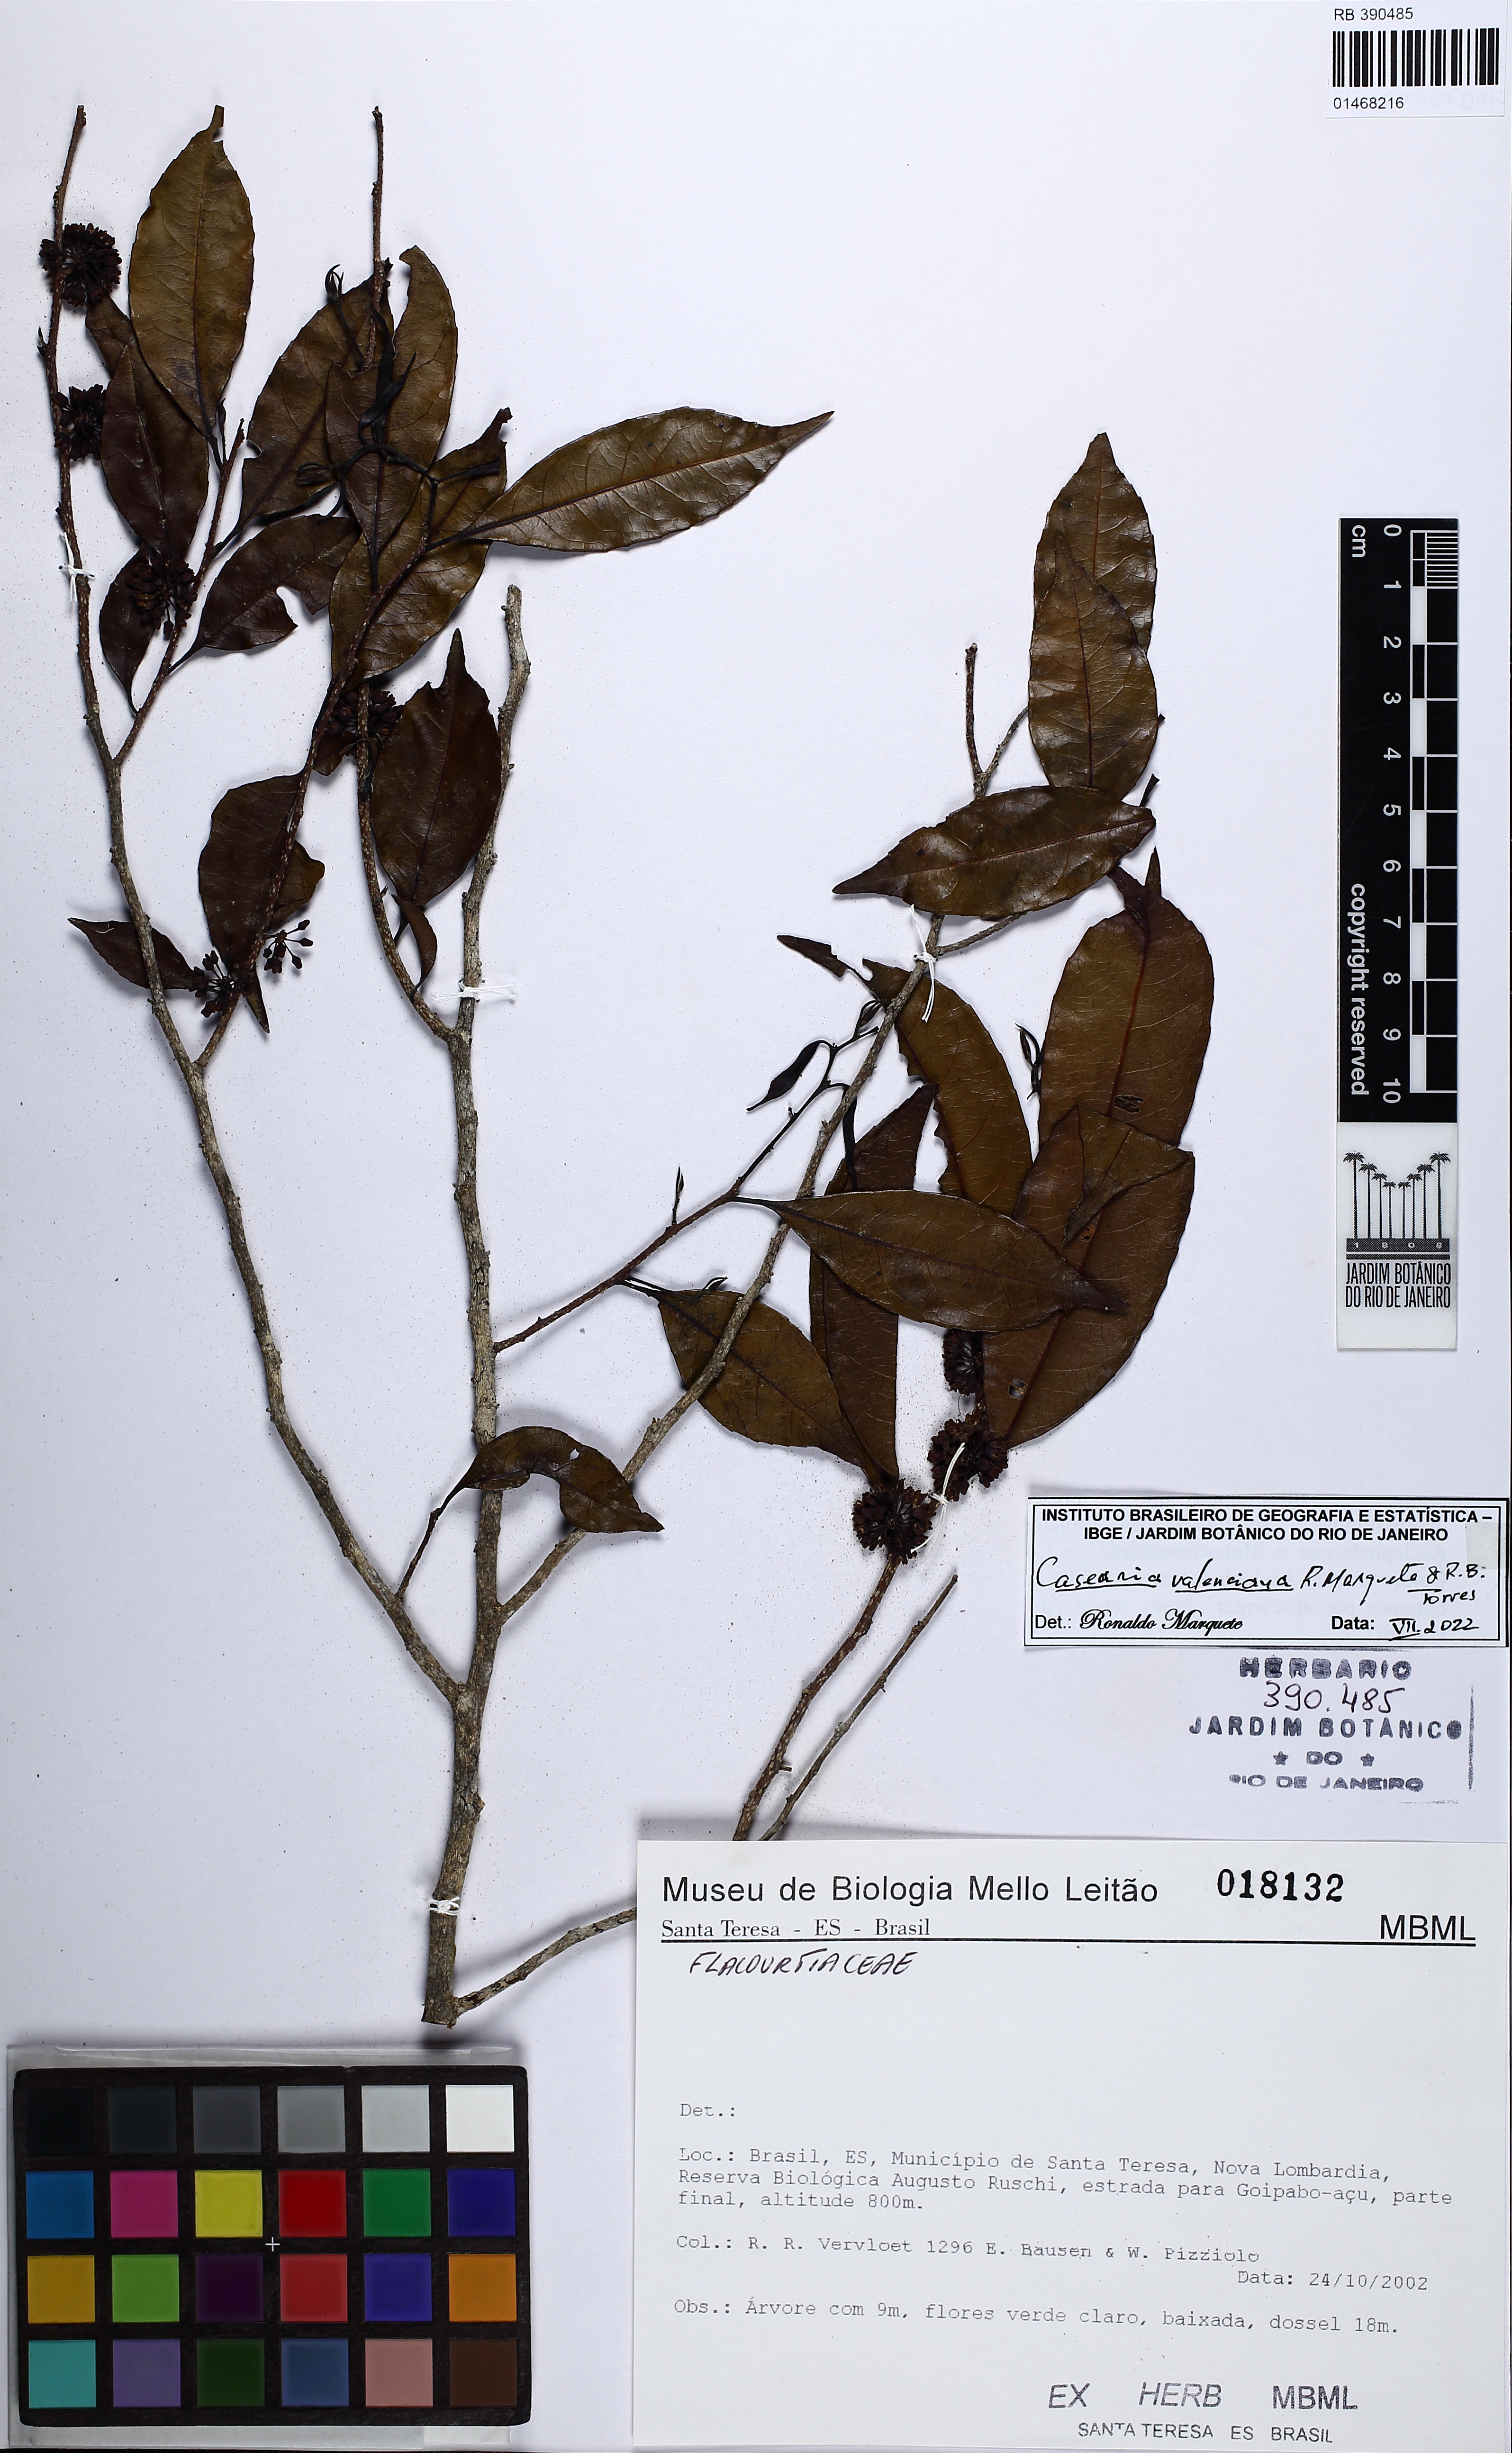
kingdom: Plantae
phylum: Tracheophyta
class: Magnoliopsida
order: Malpighiales
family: Salicaceae
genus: Casearia
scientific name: Casearia valenciana
